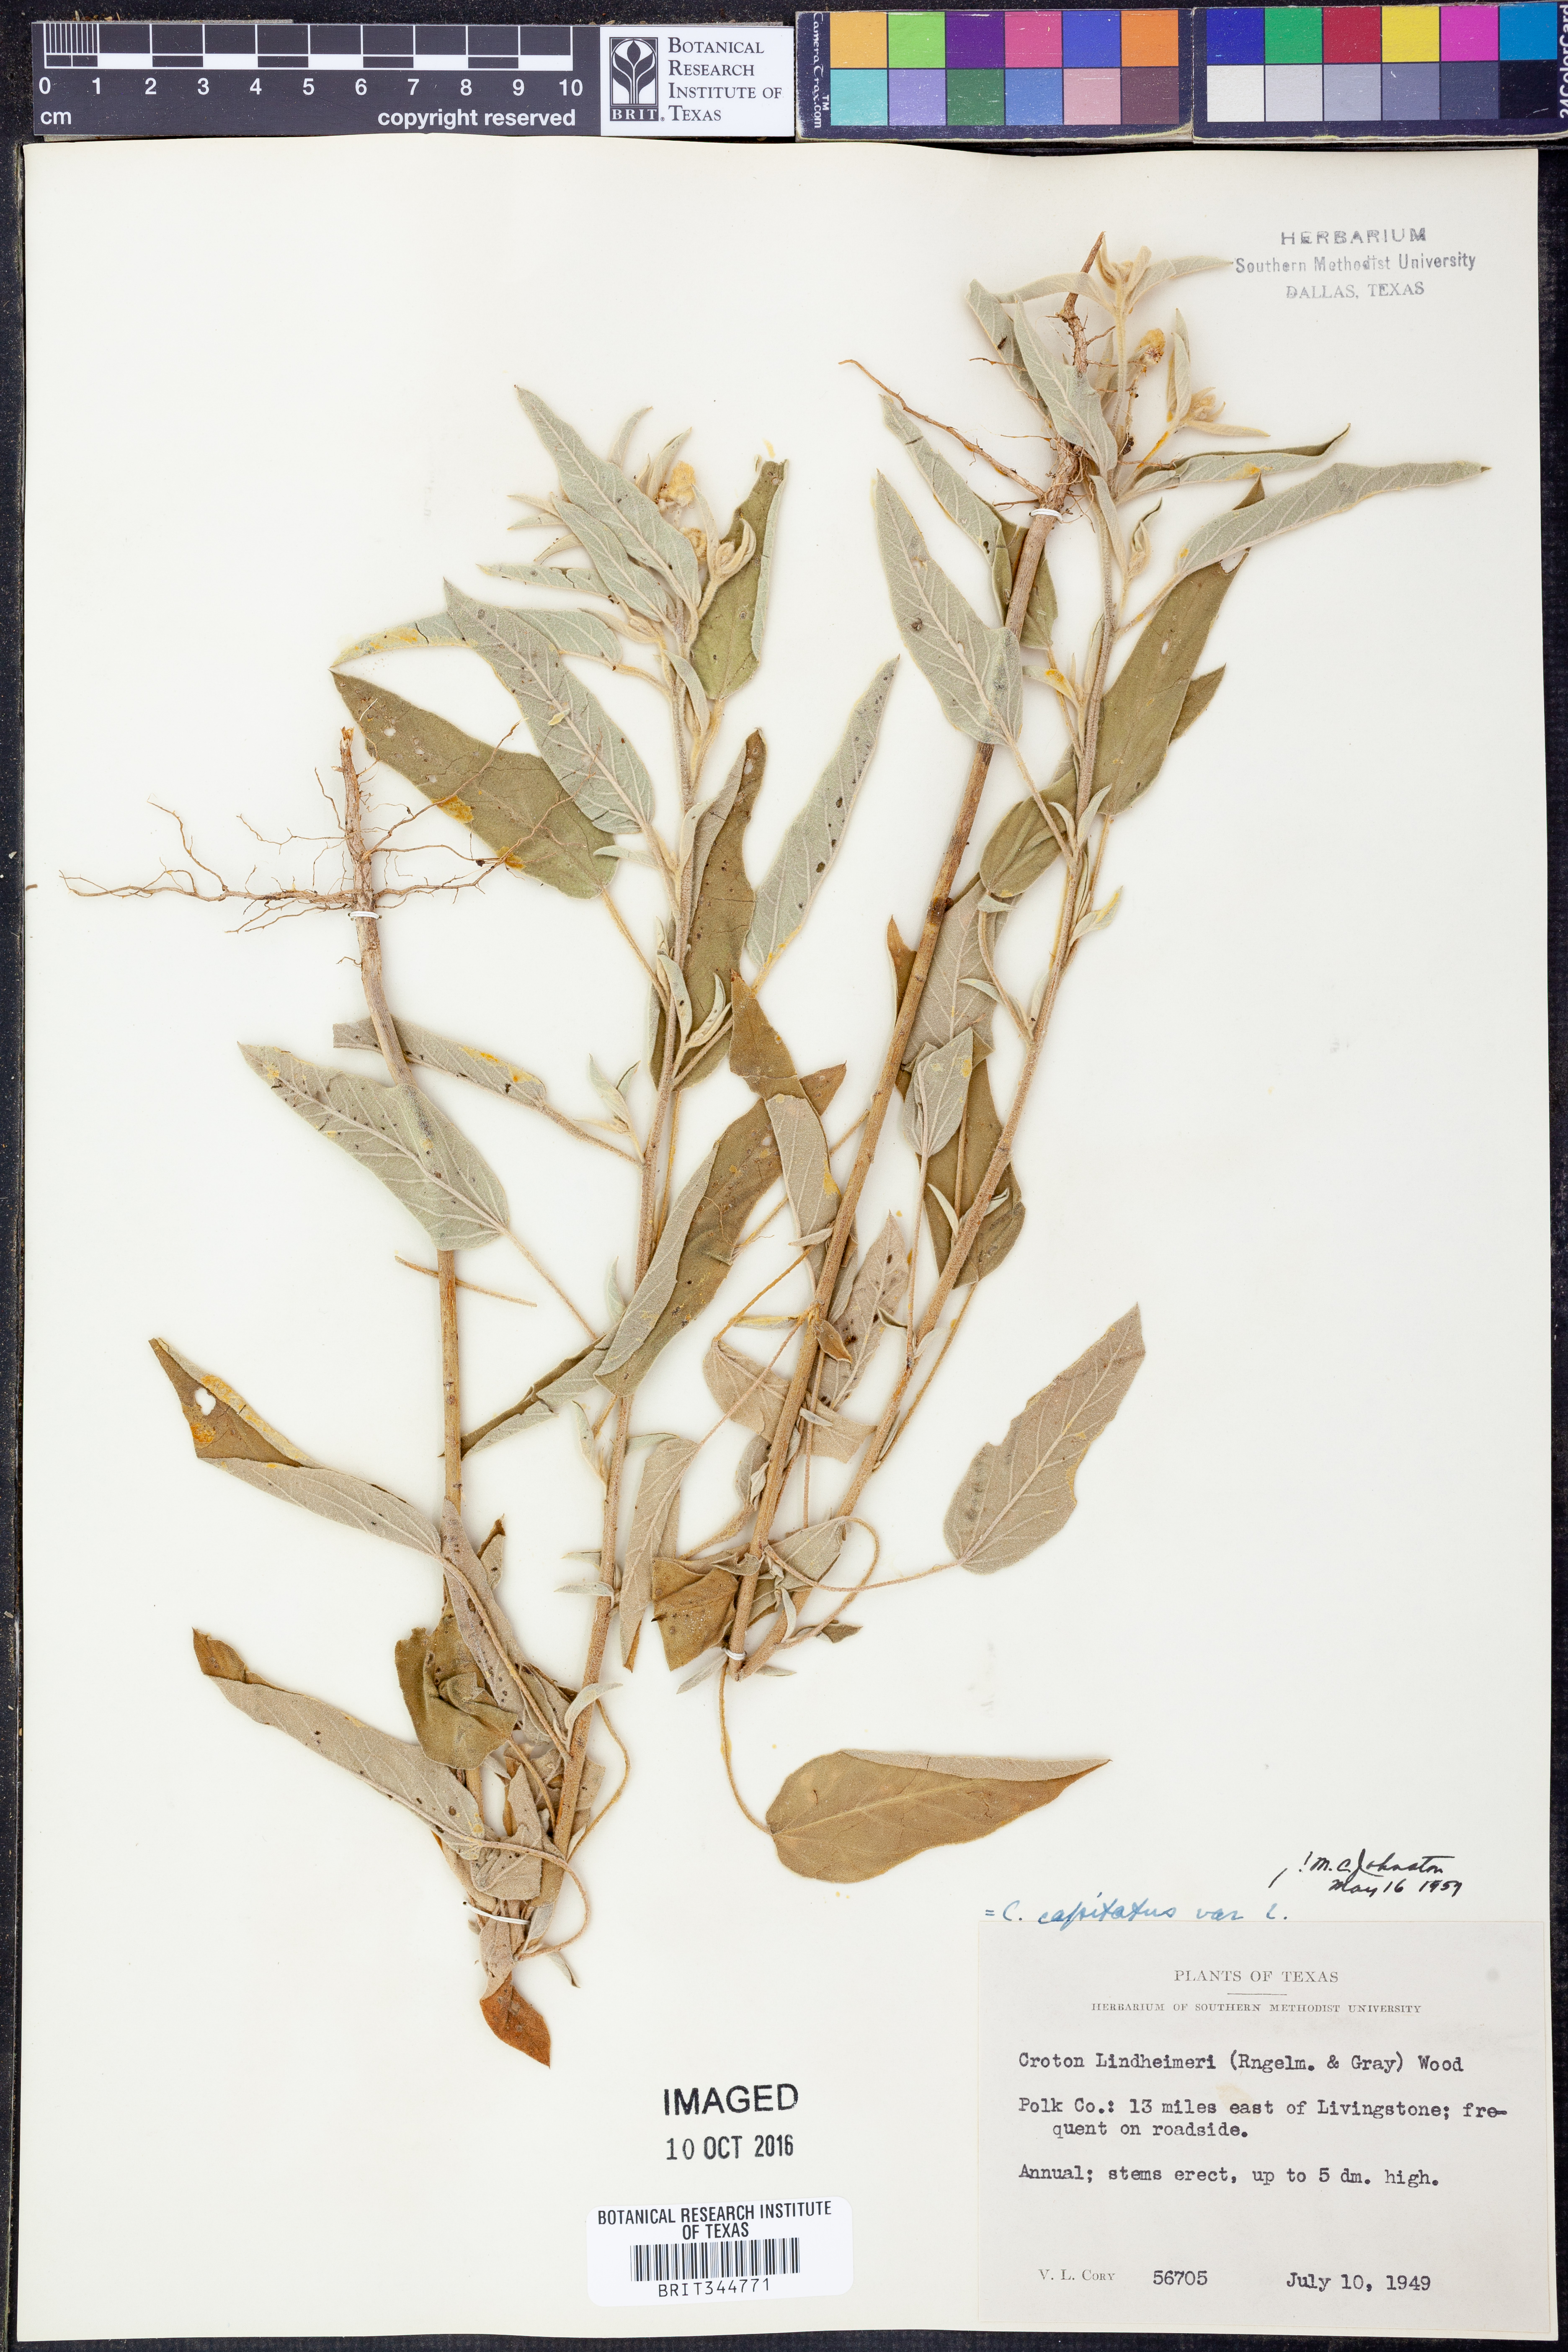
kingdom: Plantae
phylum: Tracheophyta
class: Magnoliopsida
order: Malpighiales
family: Euphorbiaceae
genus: Croton
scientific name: Croton lindheimeri
